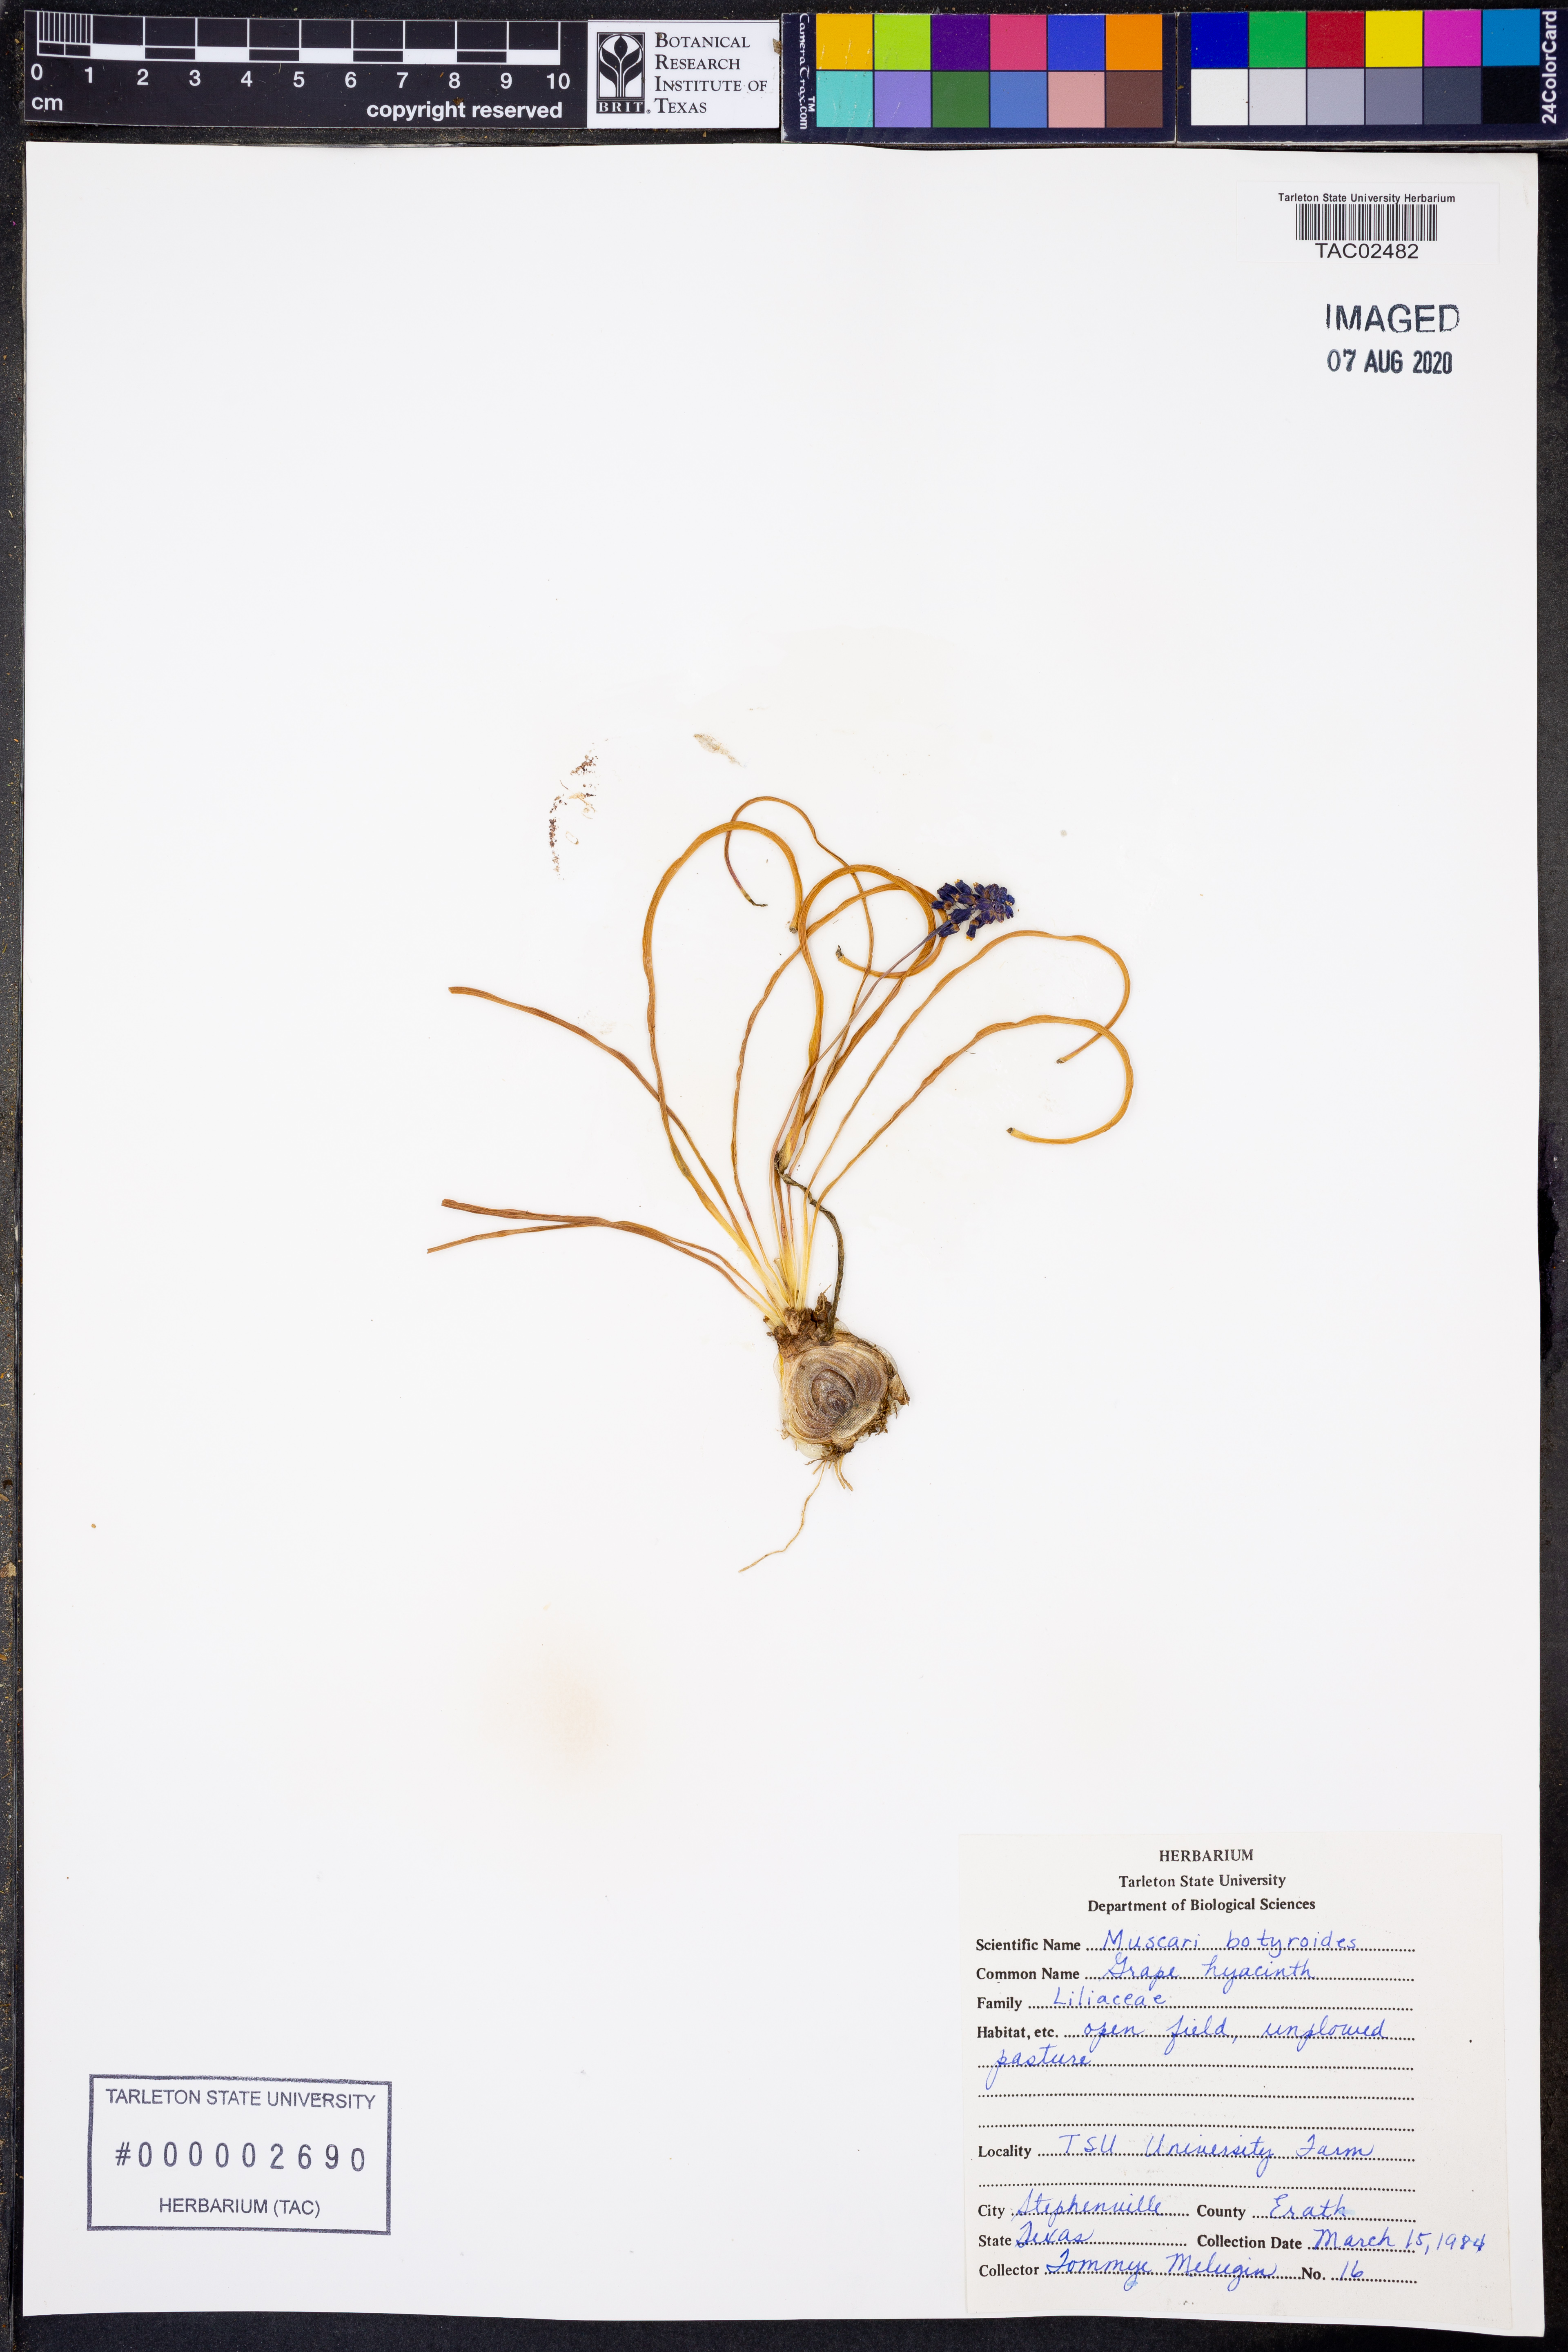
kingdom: Plantae
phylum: Tracheophyta
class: Liliopsida
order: Asparagales
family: Asparagaceae
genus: Muscari
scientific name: Muscari botryoides
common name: Compact grape-hyacinth
